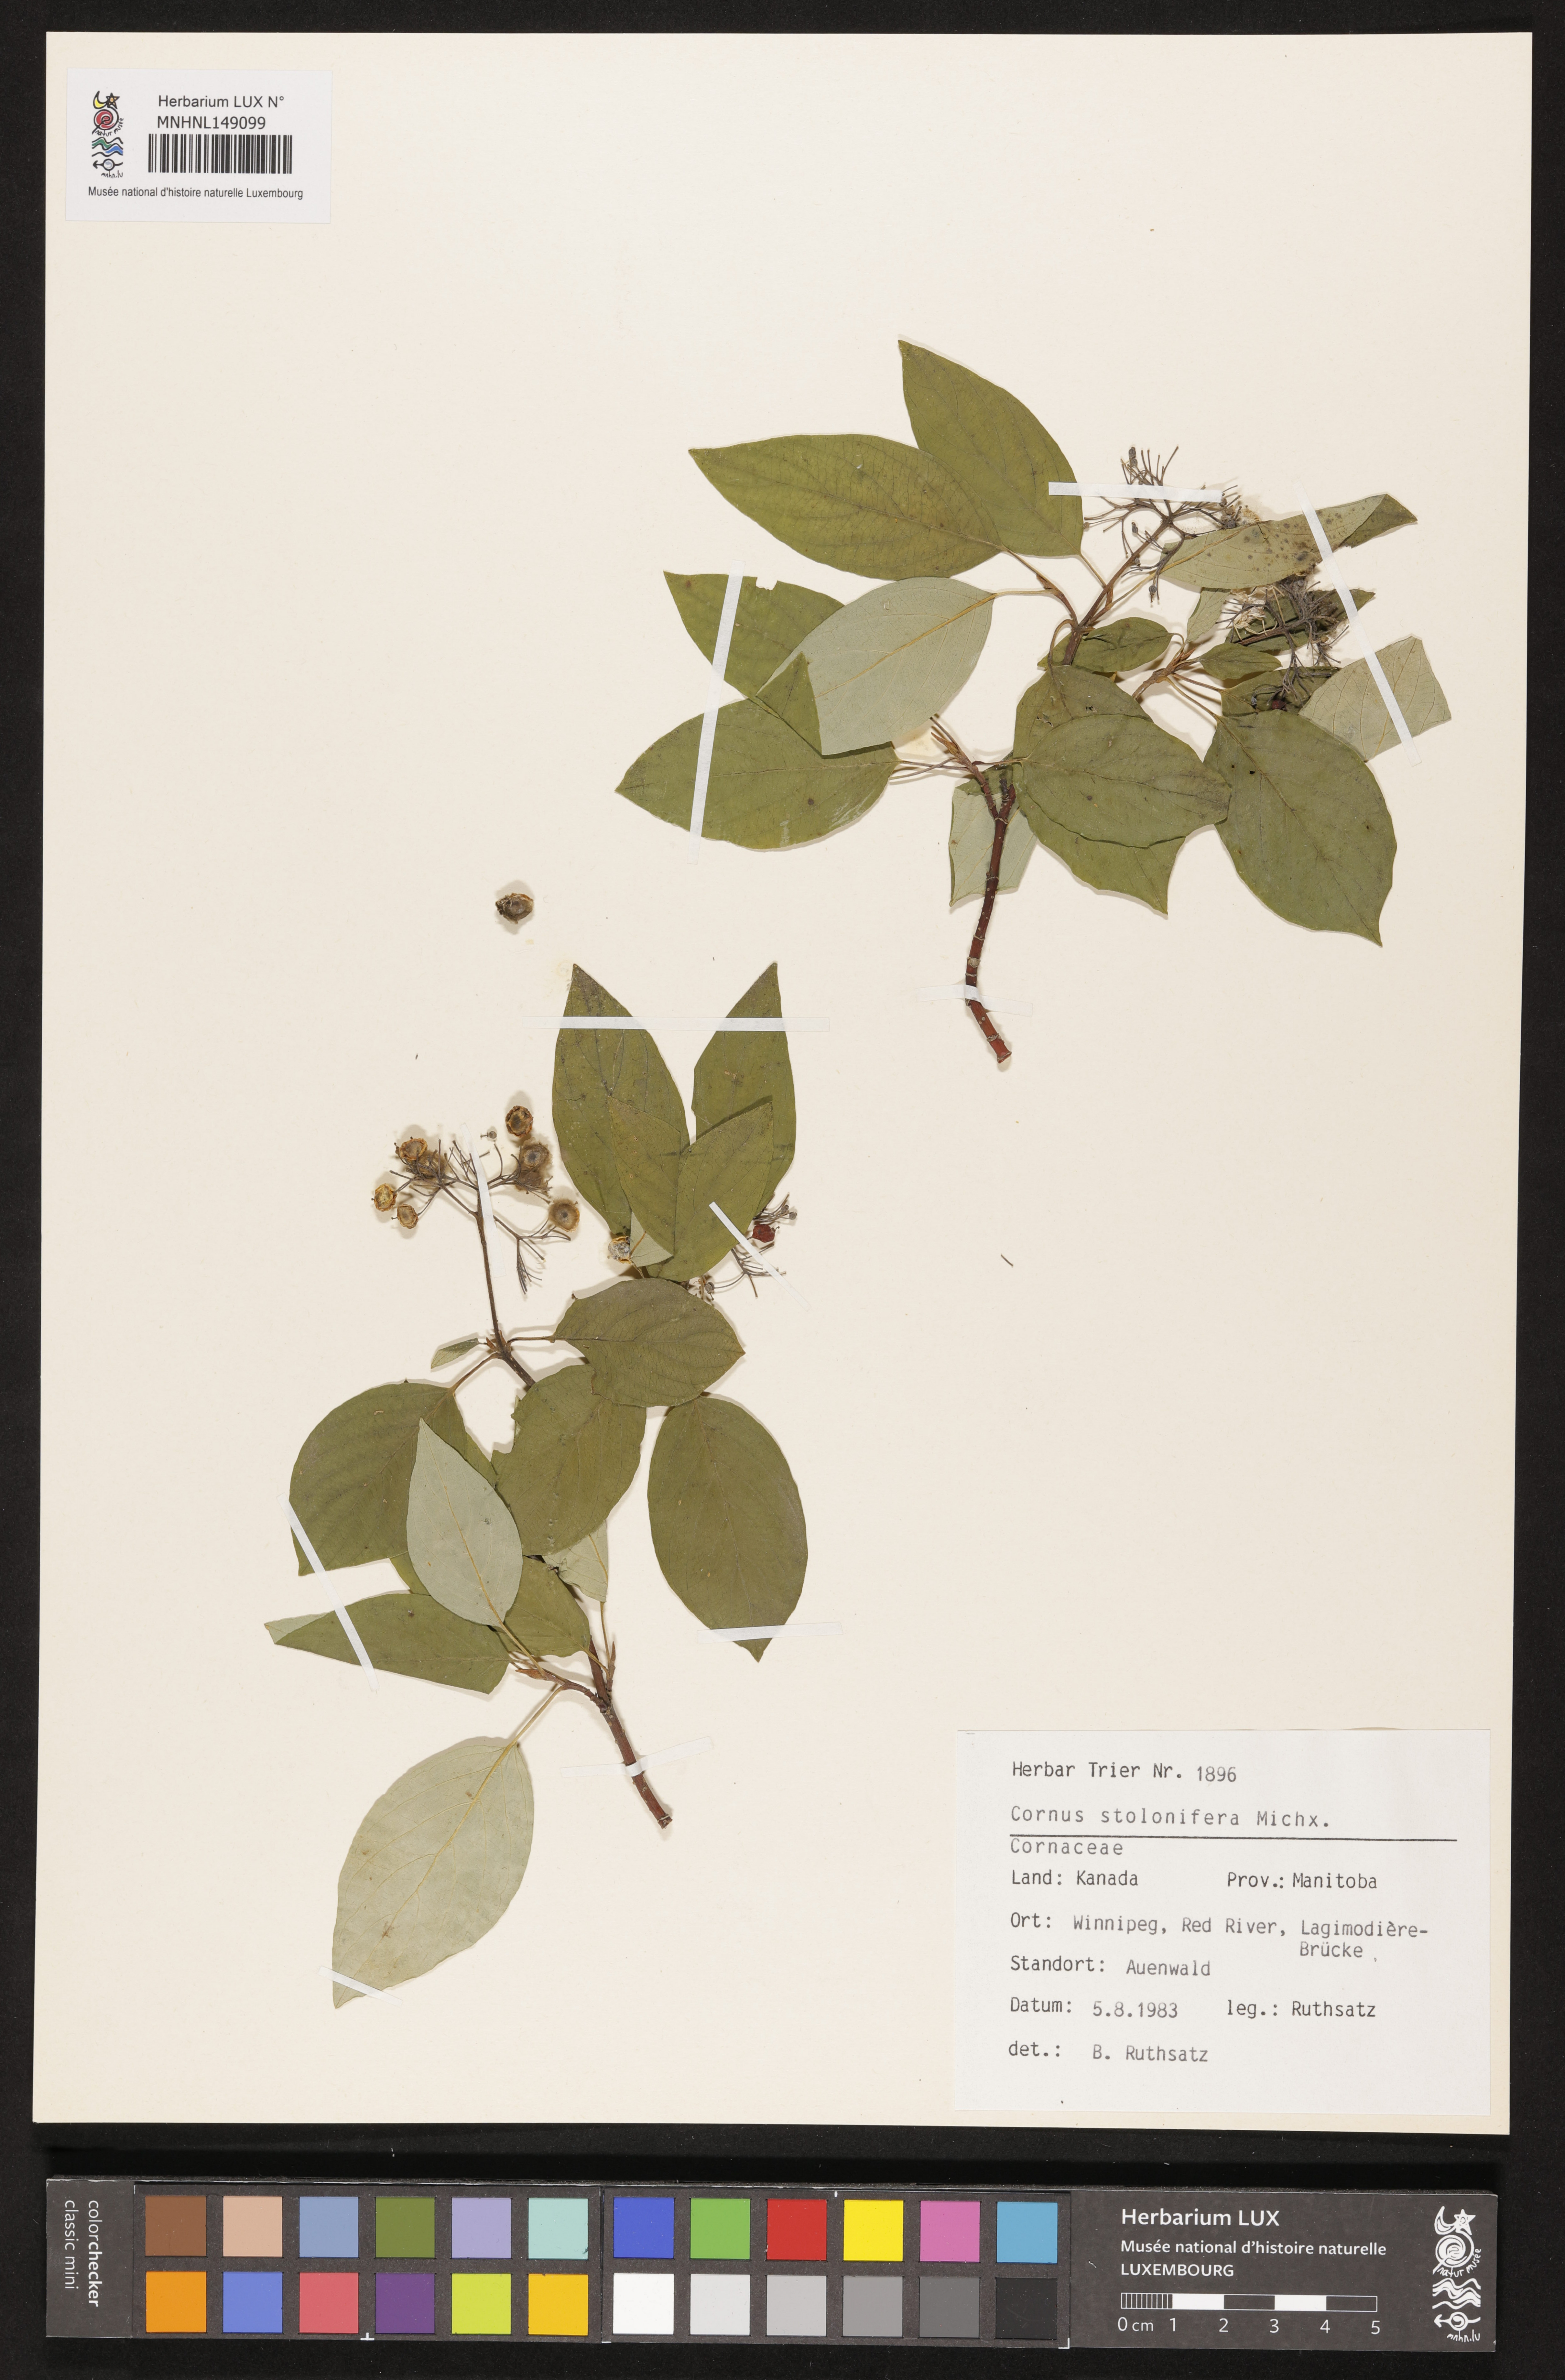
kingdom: Plantae
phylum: Tracheophyta
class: Magnoliopsida
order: Cornales
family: Cornaceae
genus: Cornus
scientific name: Cornus sericea
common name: Red-osier dogwood
